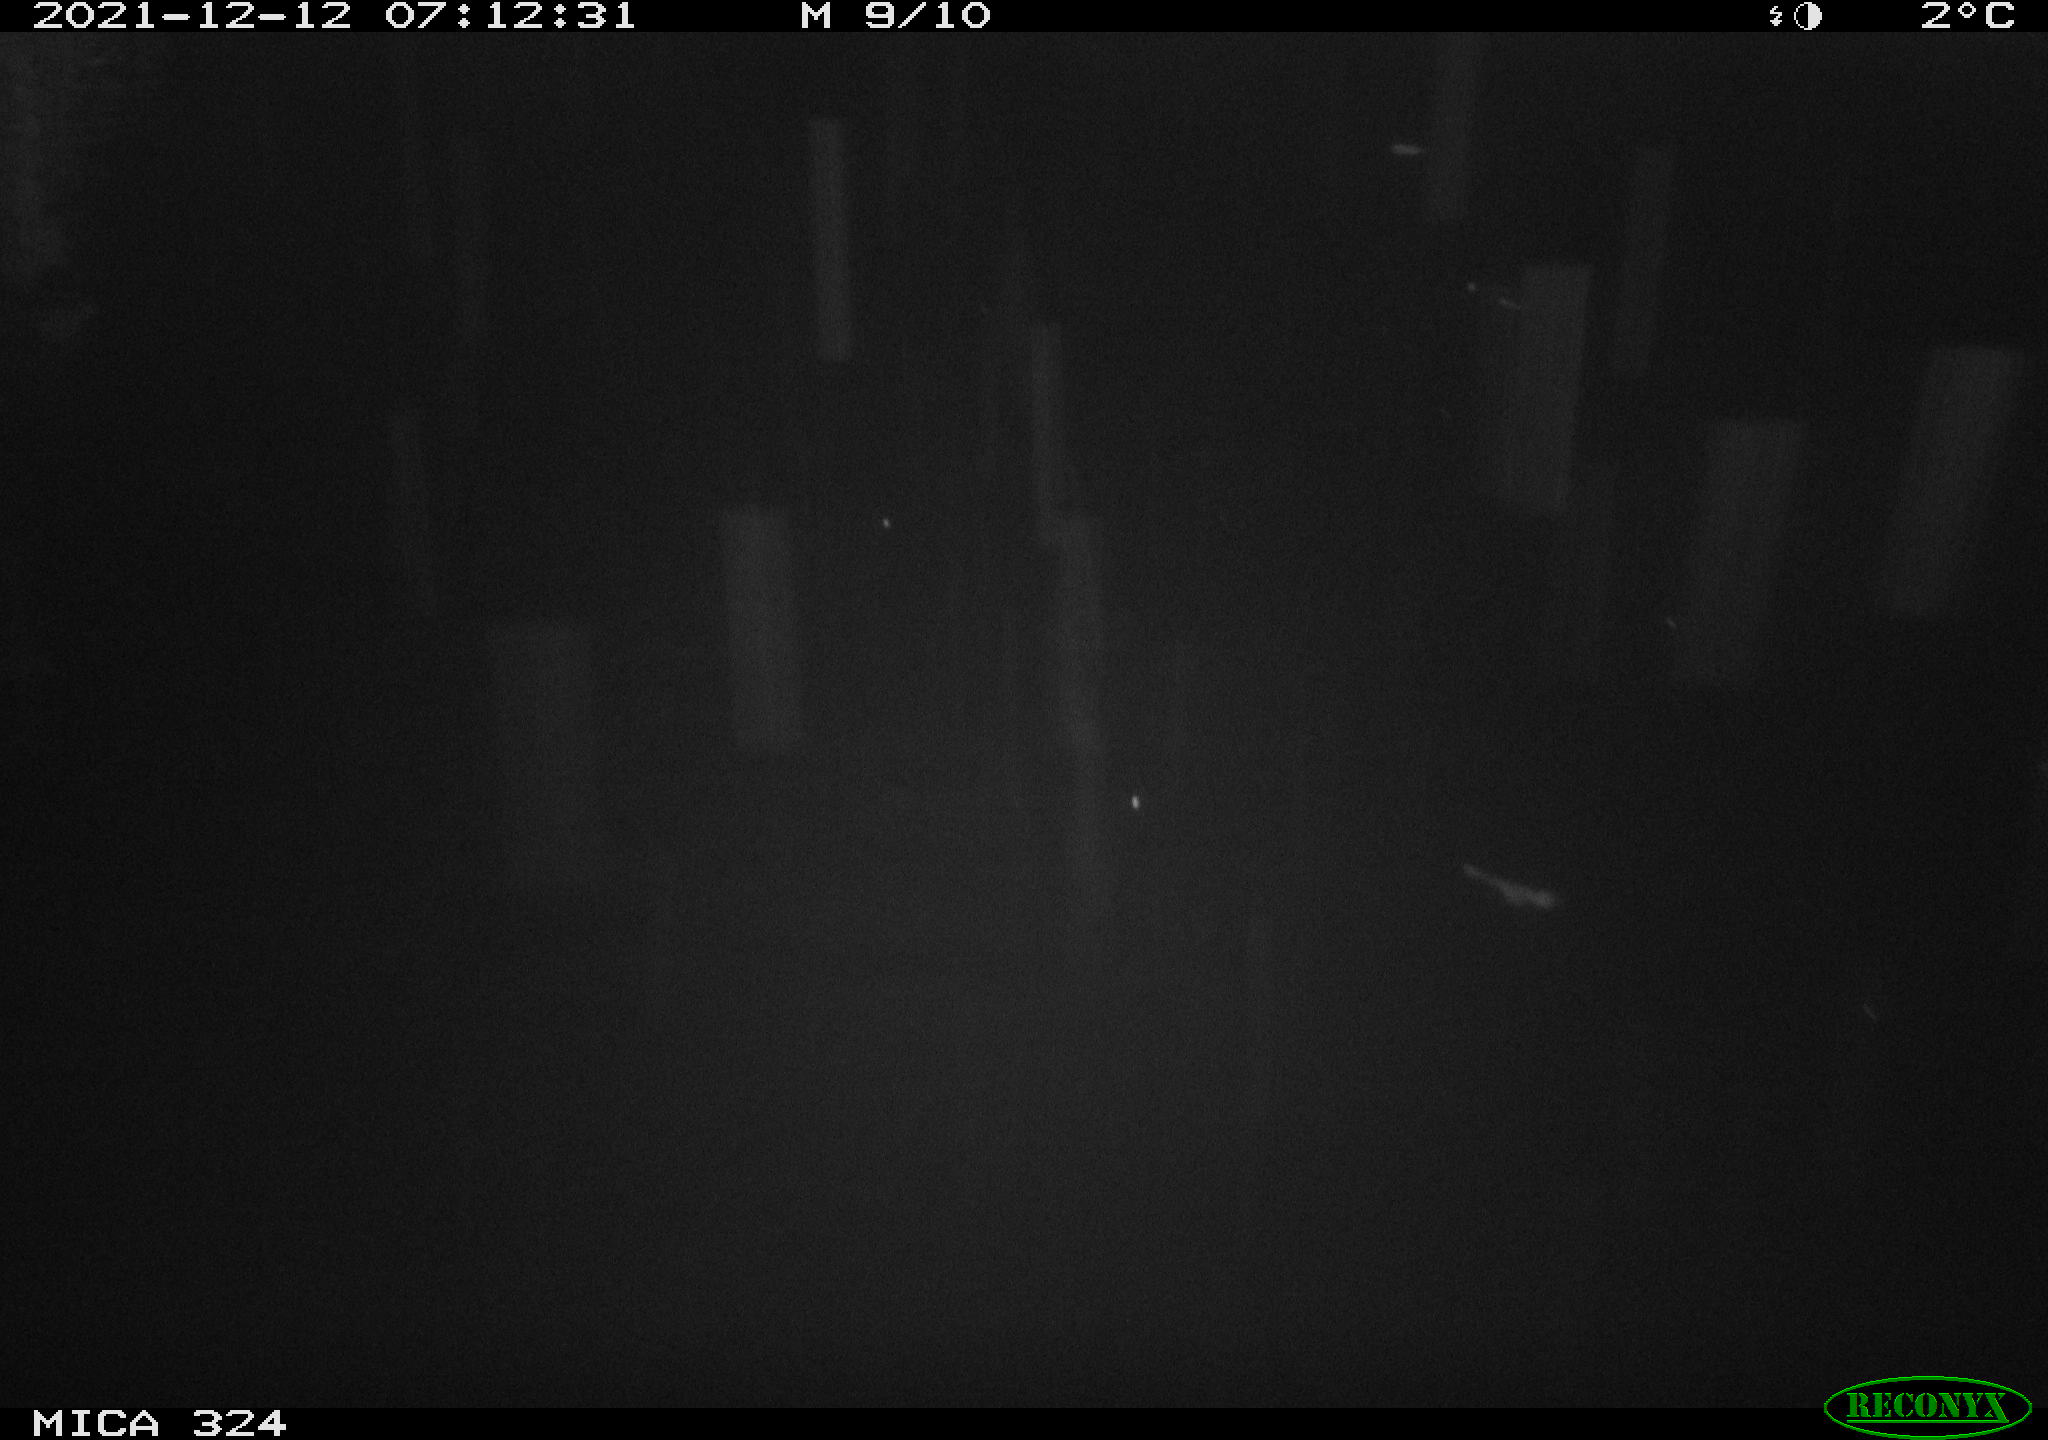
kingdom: Animalia
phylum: Chordata
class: Mammalia
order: Rodentia
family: Cricetidae
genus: Ondatra
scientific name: Ondatra zibethicus
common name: Muskrat
